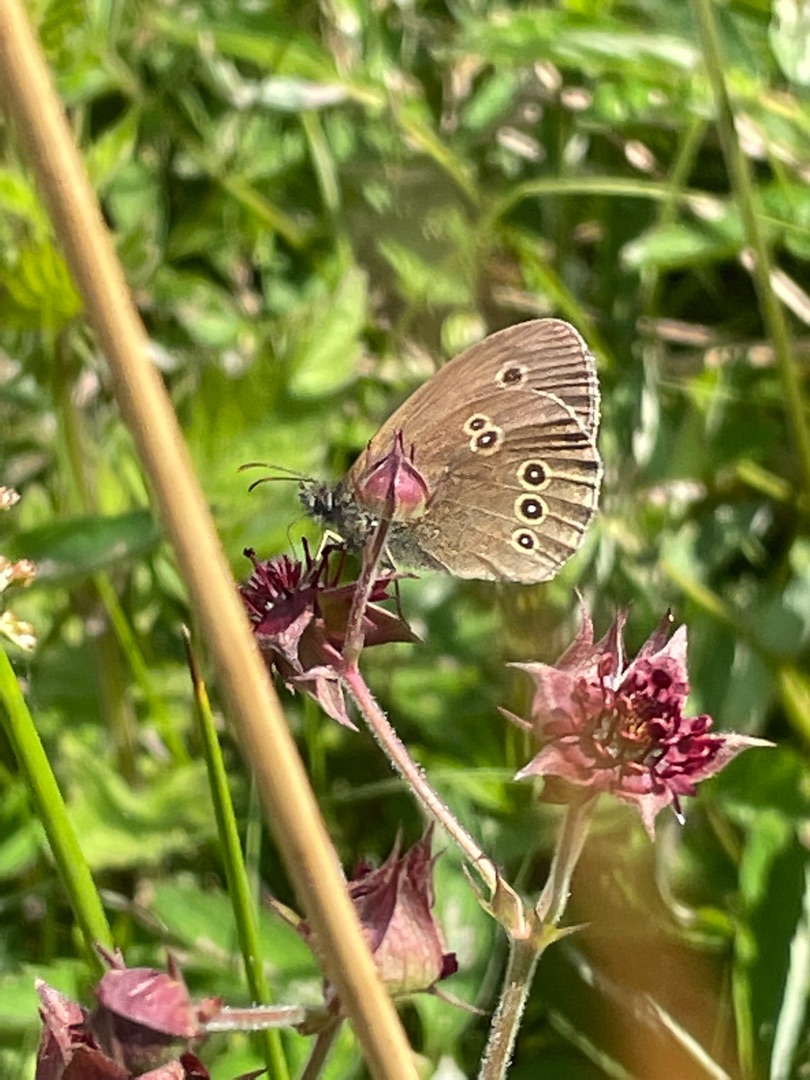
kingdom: Animalia
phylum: Arthropoda
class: Insecta
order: Lepidoptera
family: Nymphalidae
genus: Aphantopus
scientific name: Aphantopus hyperantus
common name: Engrandøje
